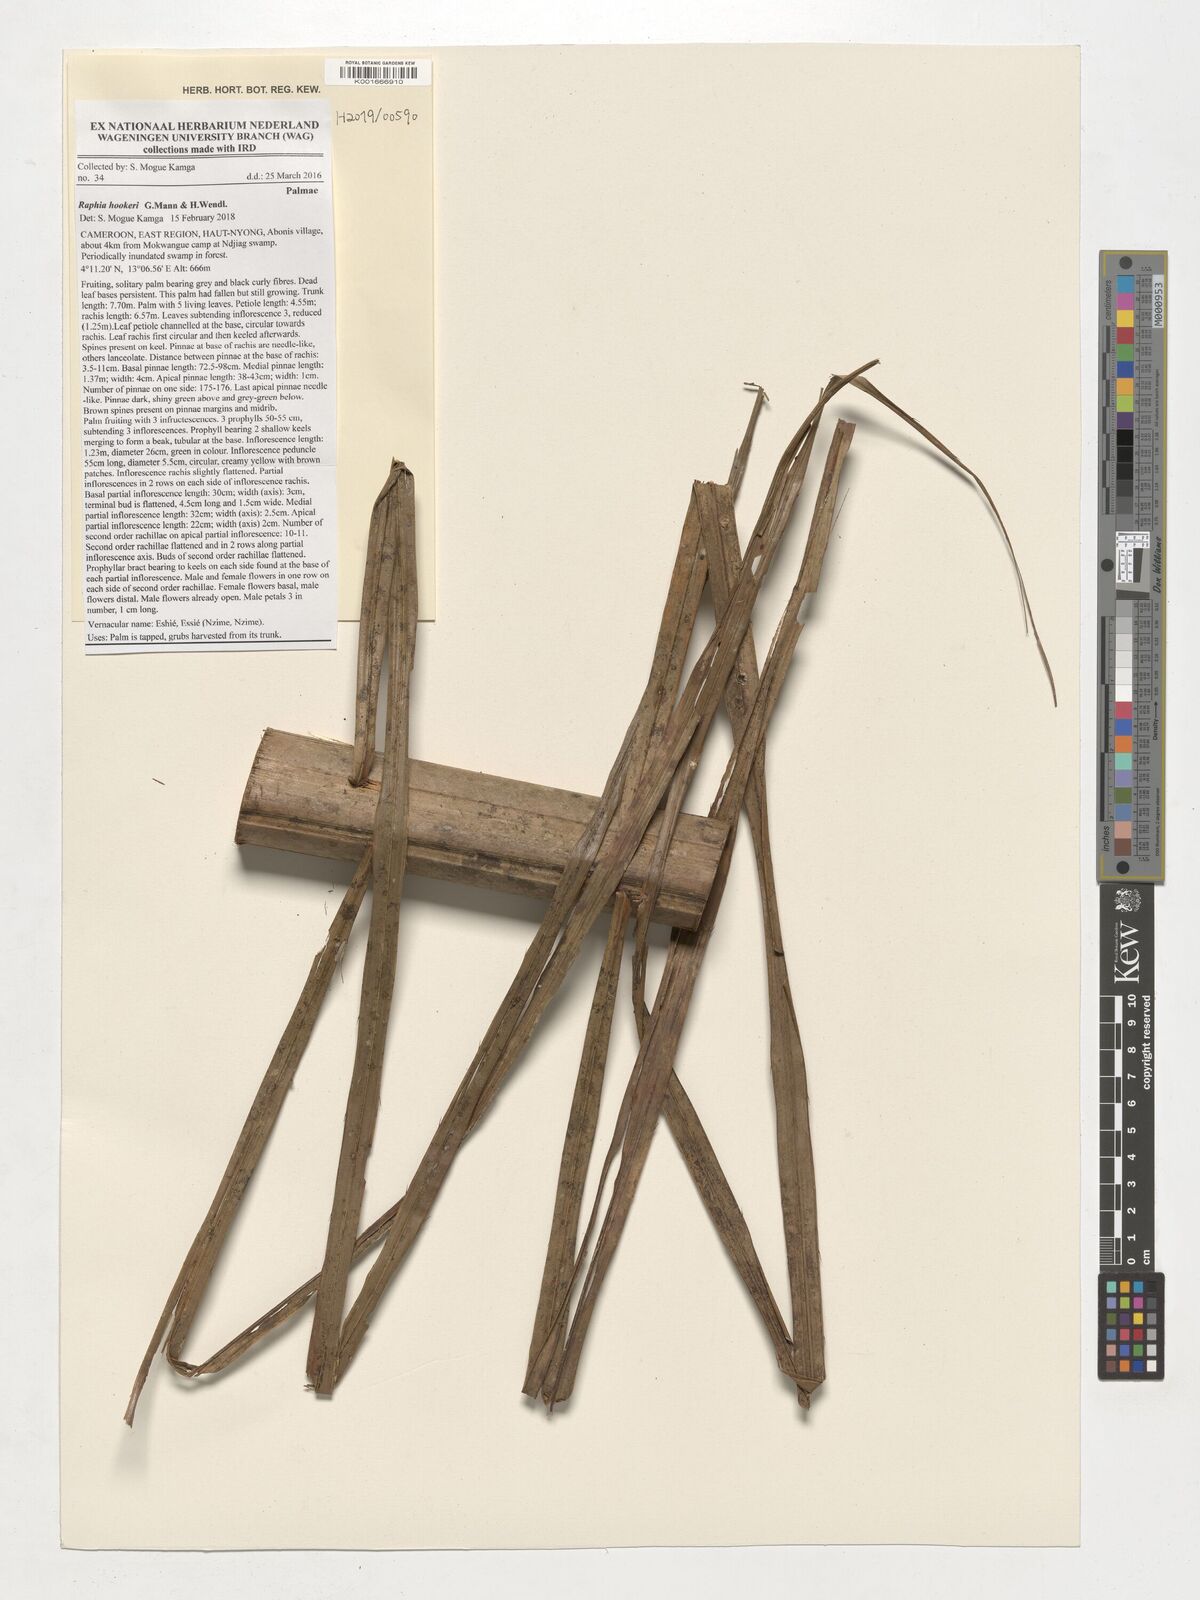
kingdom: Plantae
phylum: Tracheophyta
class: Liliopsida
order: Arecales
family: Arecaceae
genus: Raphia
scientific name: Raphia hookeri
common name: Wine palm
